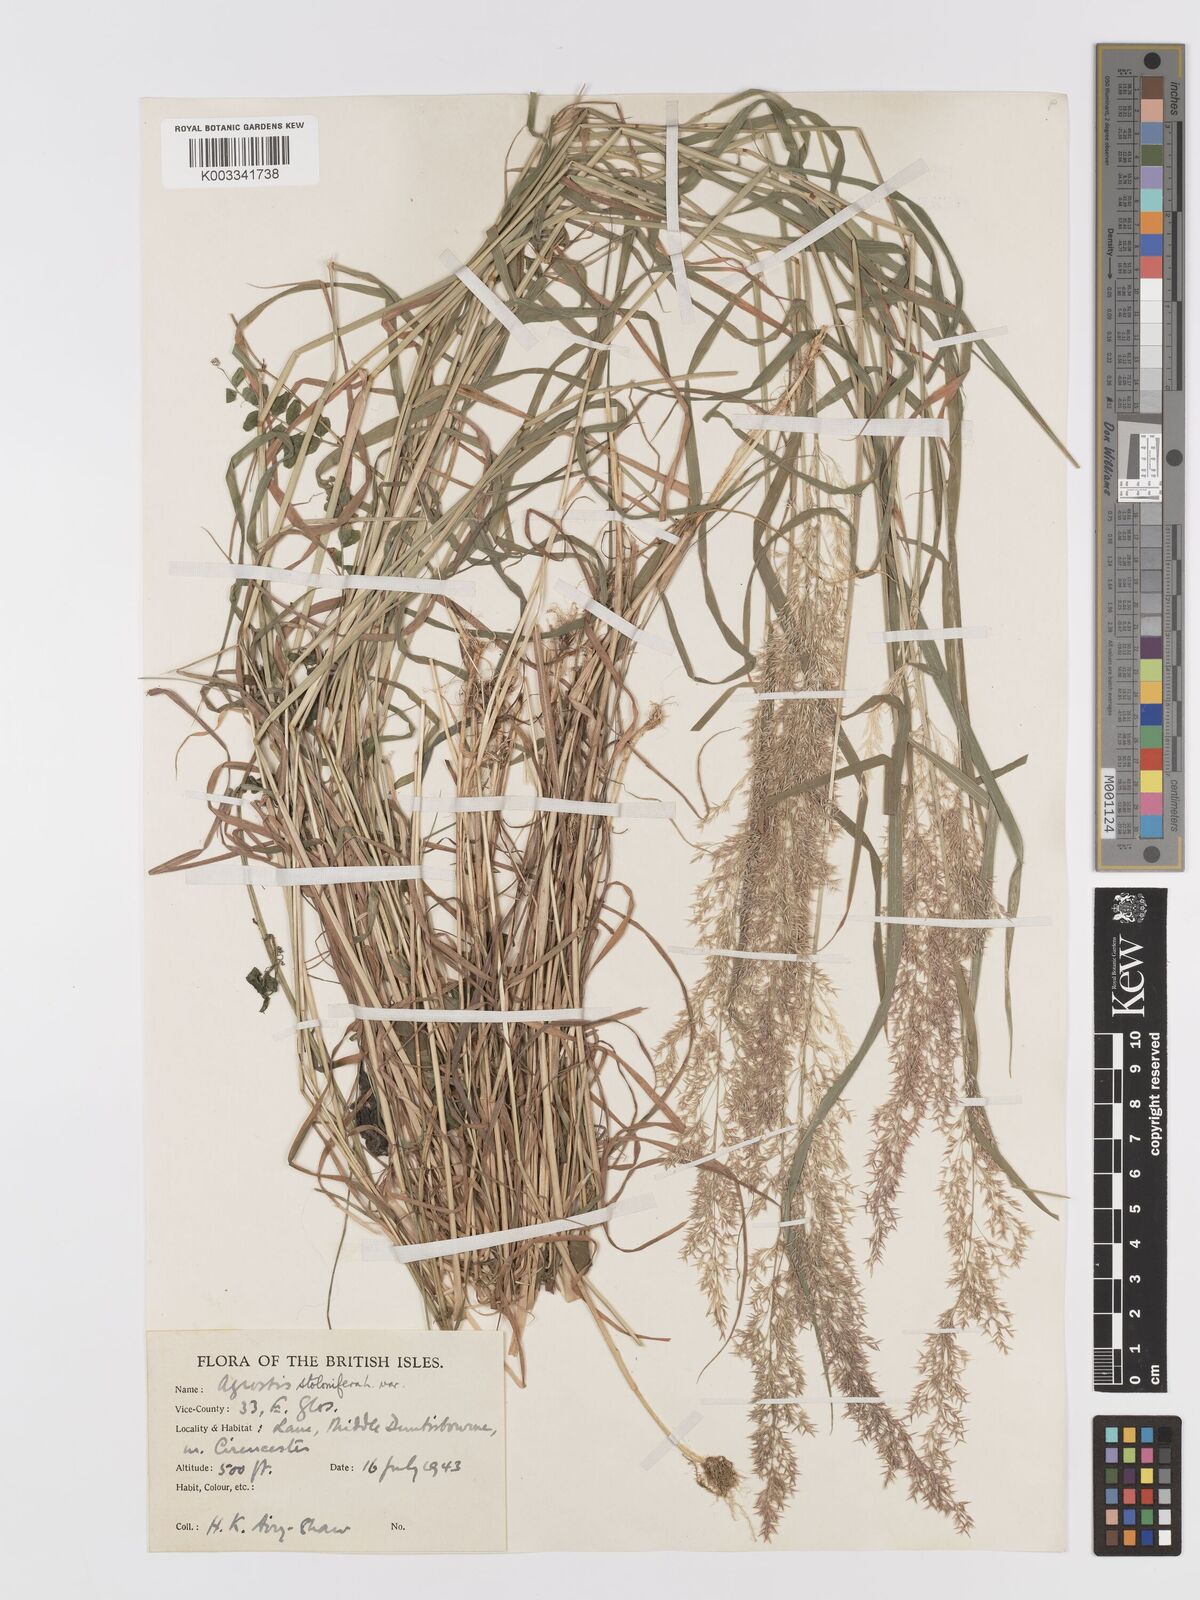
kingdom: Plantae
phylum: Tracheophyta
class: Liliopsida
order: Poales
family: Poaceae
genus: Agrostis
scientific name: Agrostis stolonifera
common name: Creeping bentgrass
